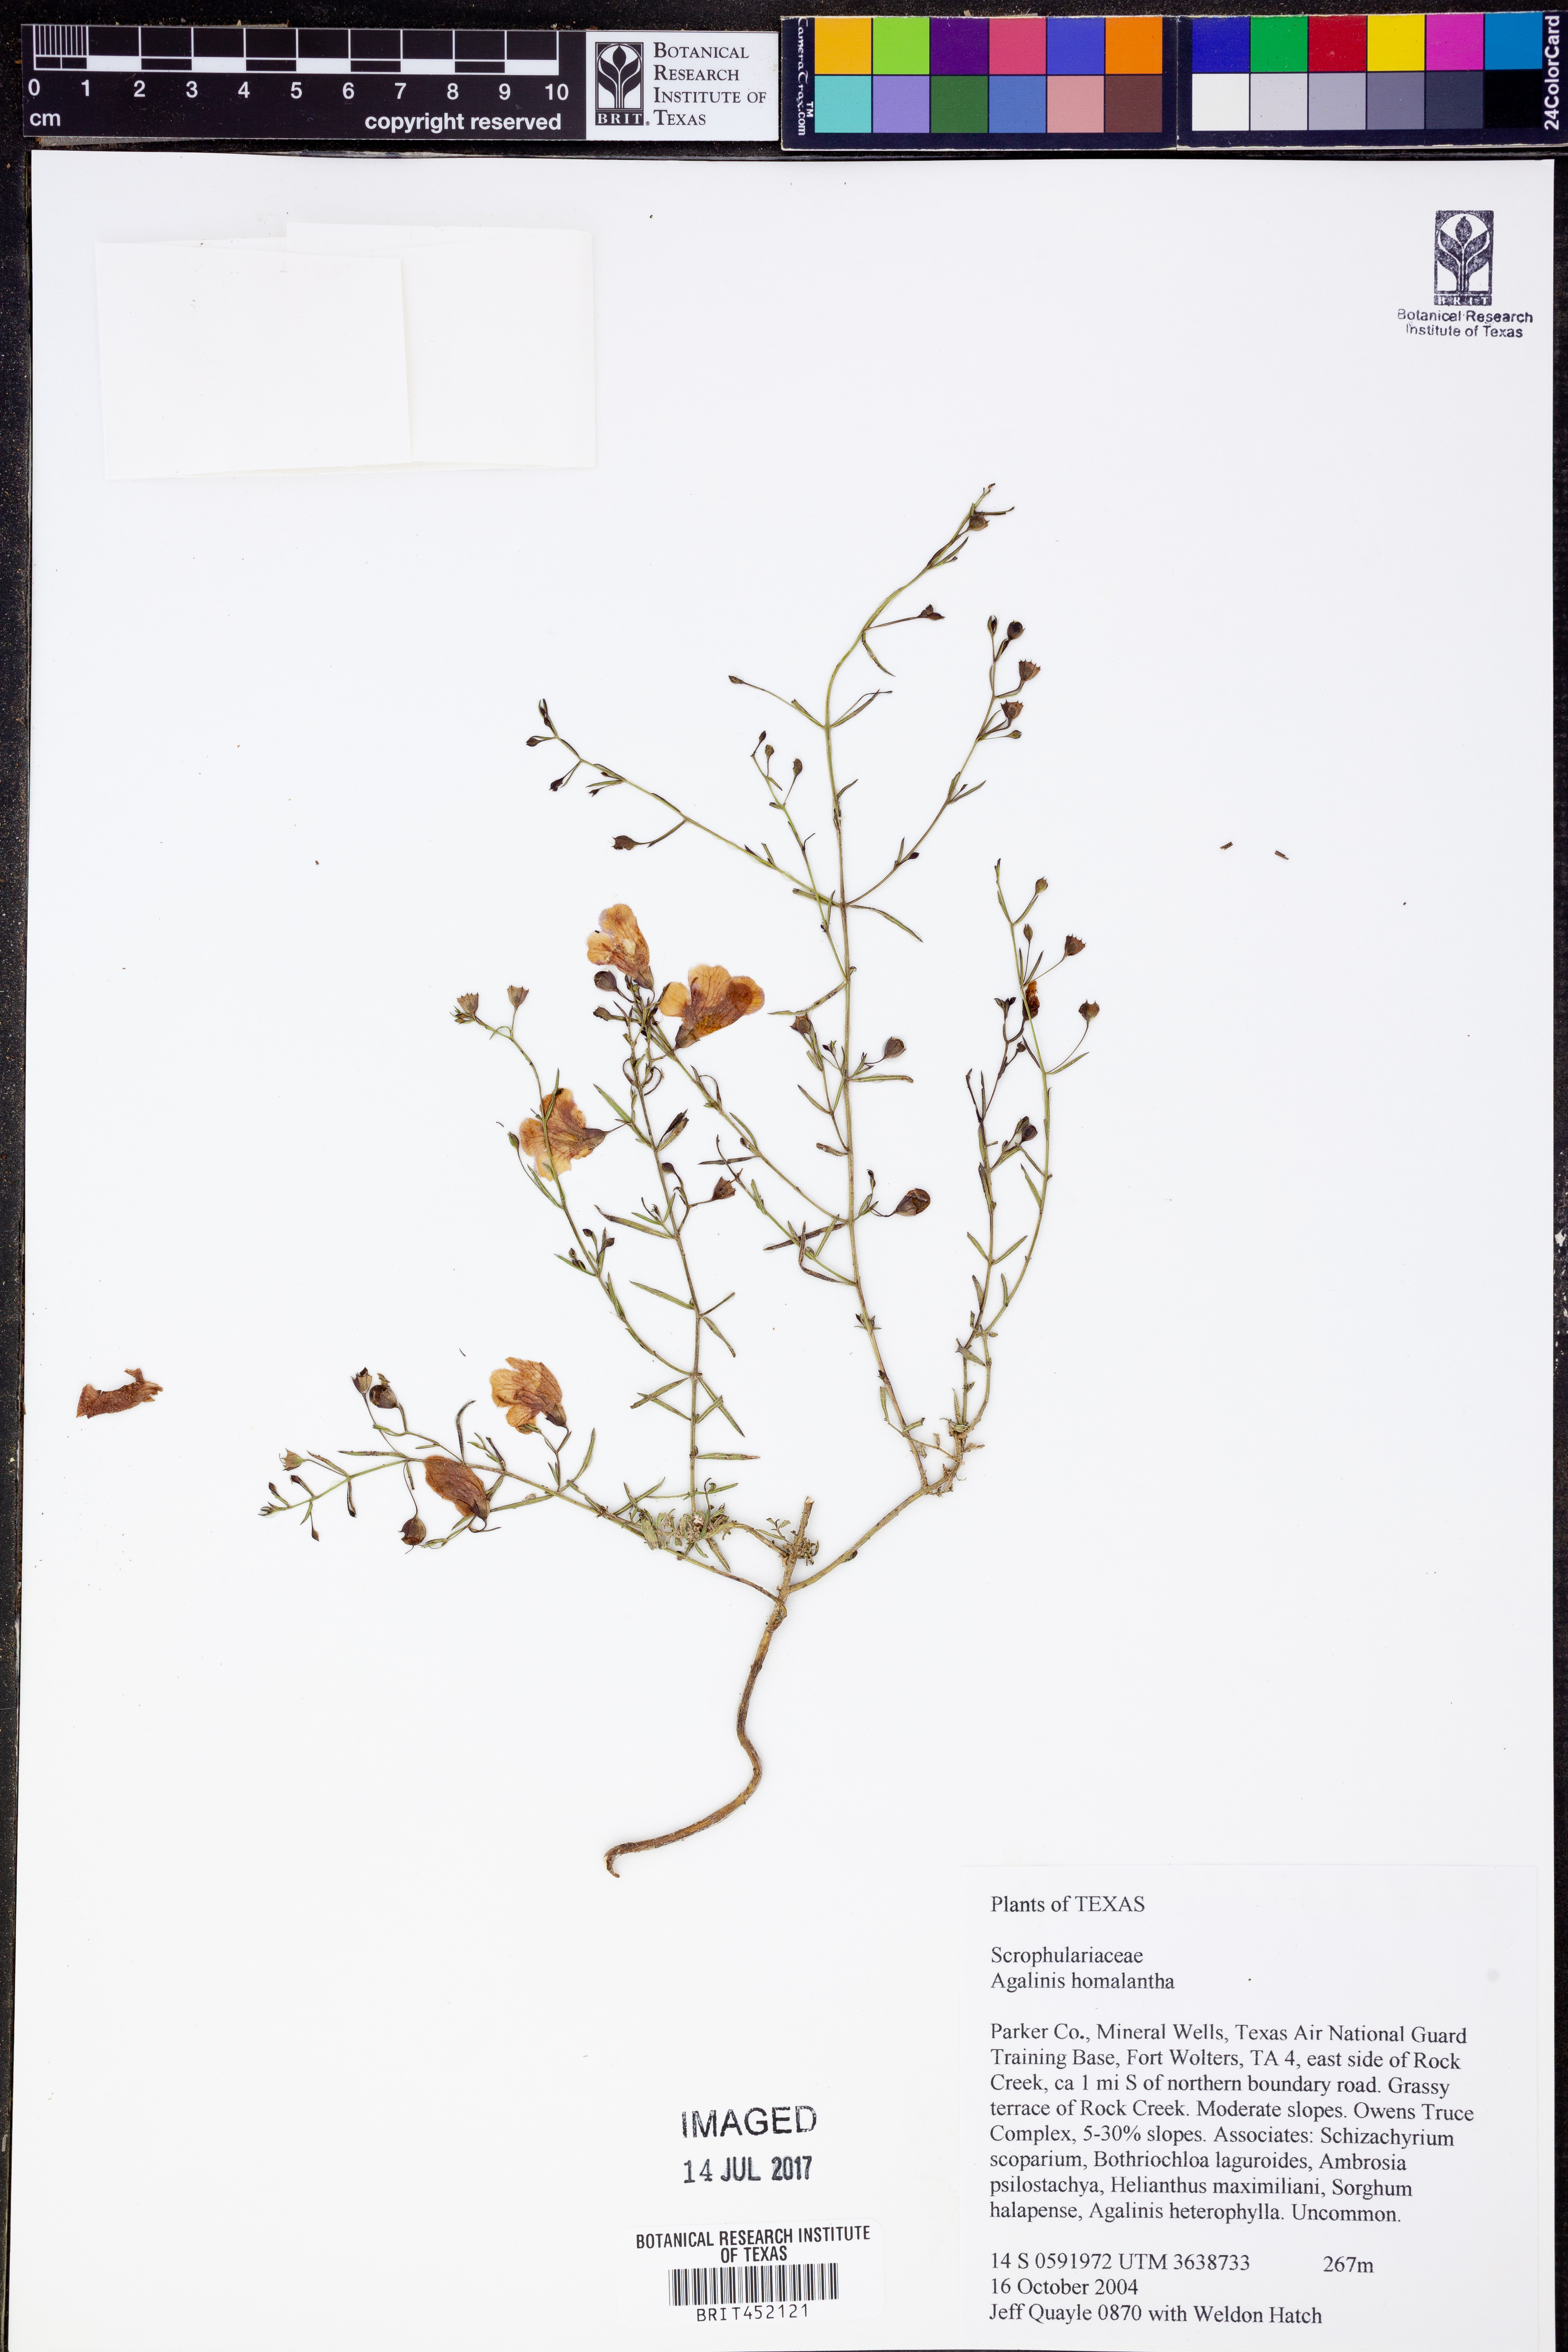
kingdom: Plantae
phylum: Tracheophyta
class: Magnoliopsida
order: Lamiales
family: Orobanchaceae
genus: Agalinis
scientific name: Agalinis homalantha
